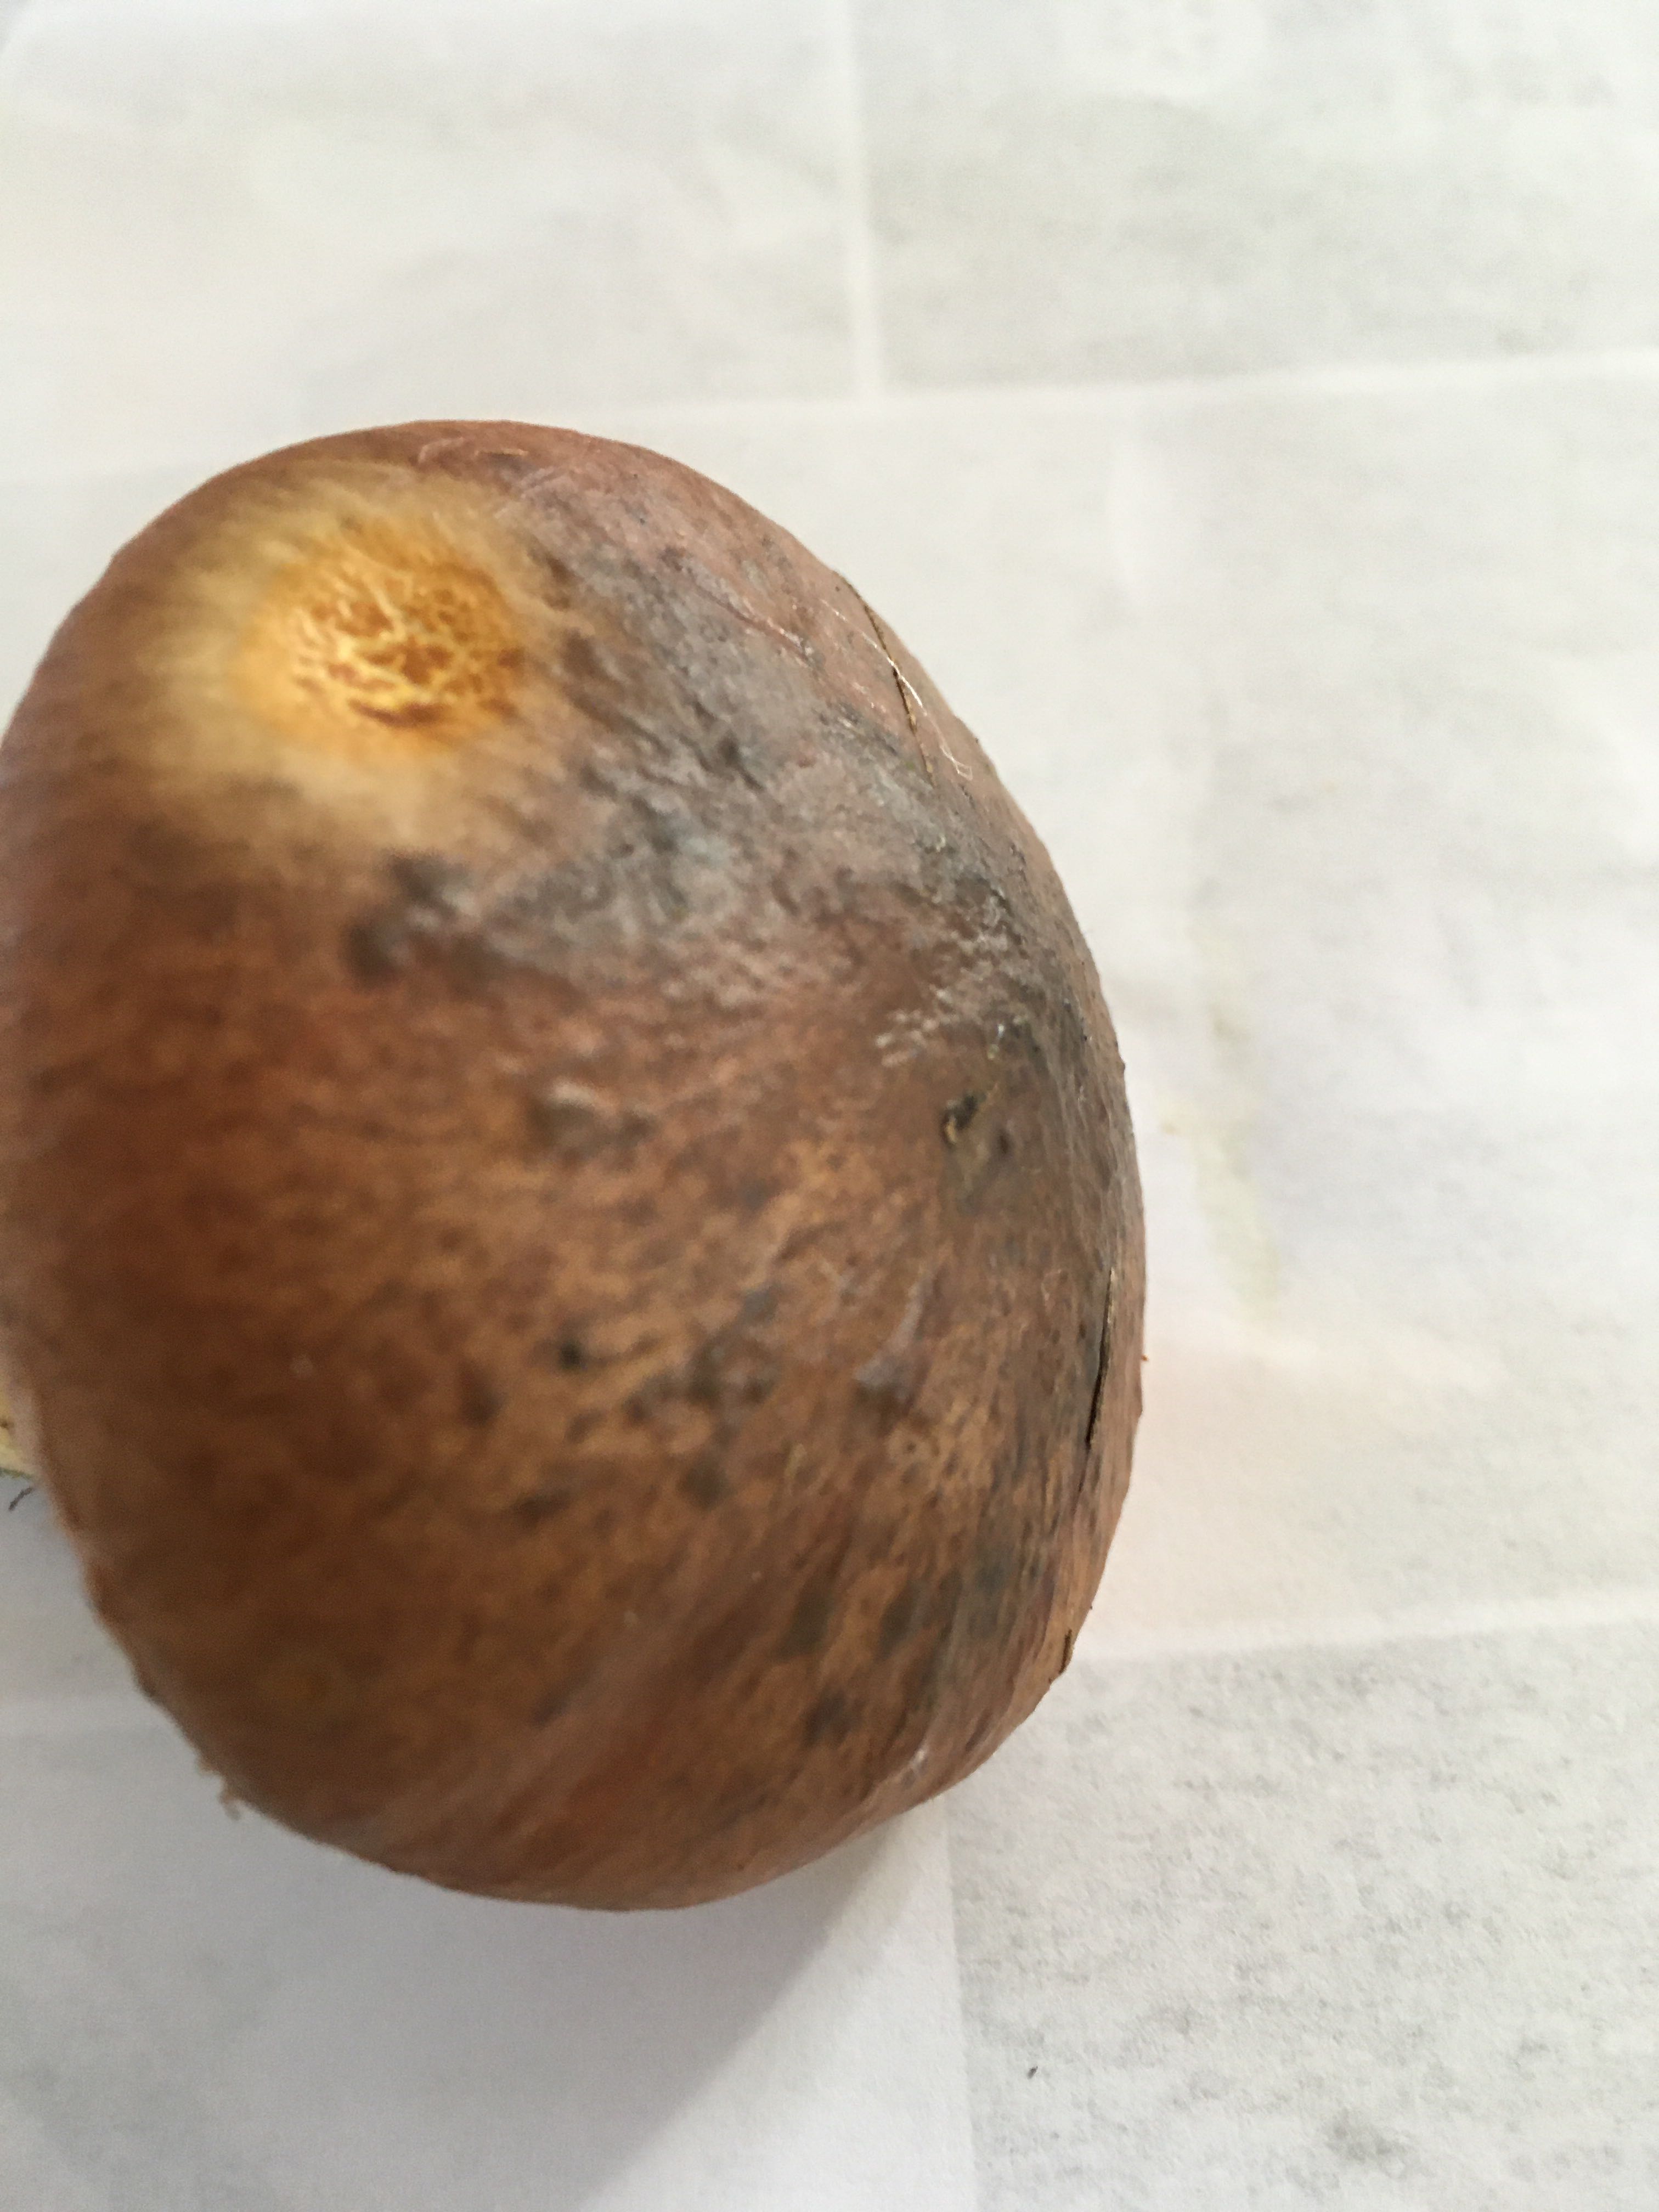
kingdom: Fungi
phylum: Basidiomycota
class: Agaricomycetes
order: Boletales
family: Suillaceae
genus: Suillus
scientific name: Suillus luteus
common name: brungul slimrørhat
